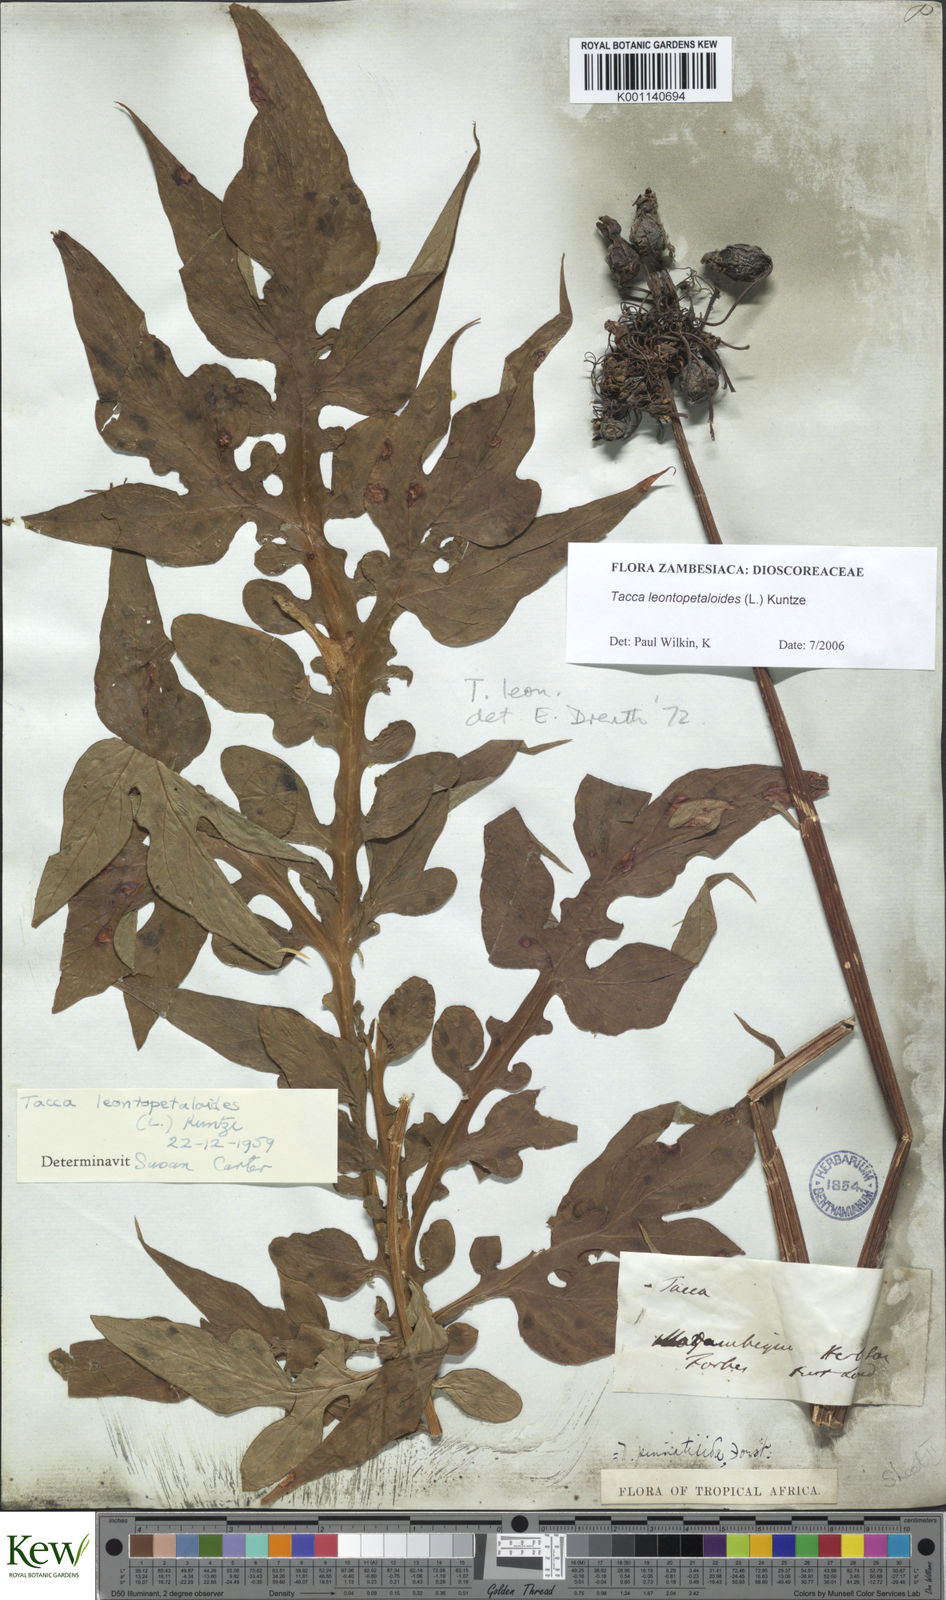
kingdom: Plantae
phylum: Tracheophyta
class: Liliopsida
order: Dioscoreales
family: Dioscoreaceae
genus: Tacca
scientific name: Tacca leontopetaloides
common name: Arrowroot
